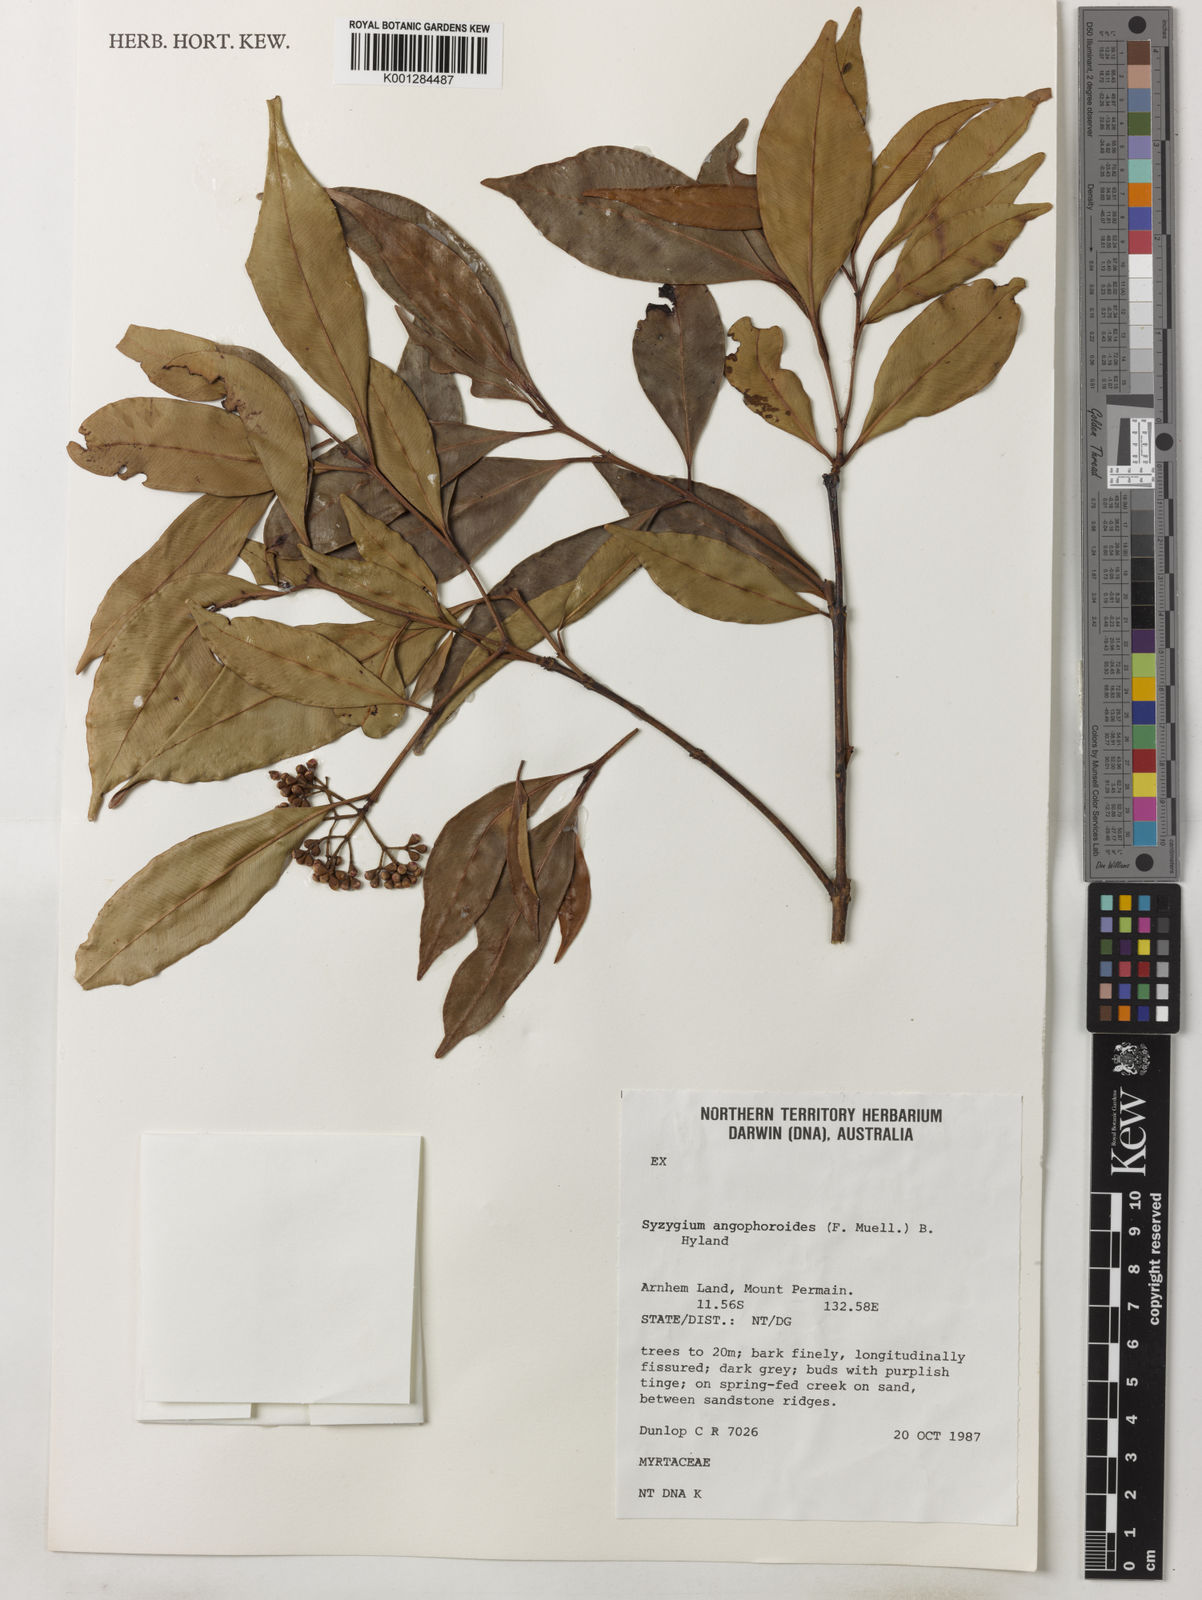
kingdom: Plantae
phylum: Tracheophyta
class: Magnoliopsida
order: Myrtales
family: Myrtaceae
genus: Syzygium
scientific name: Syzygium angophoroides
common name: Swamp satinash
